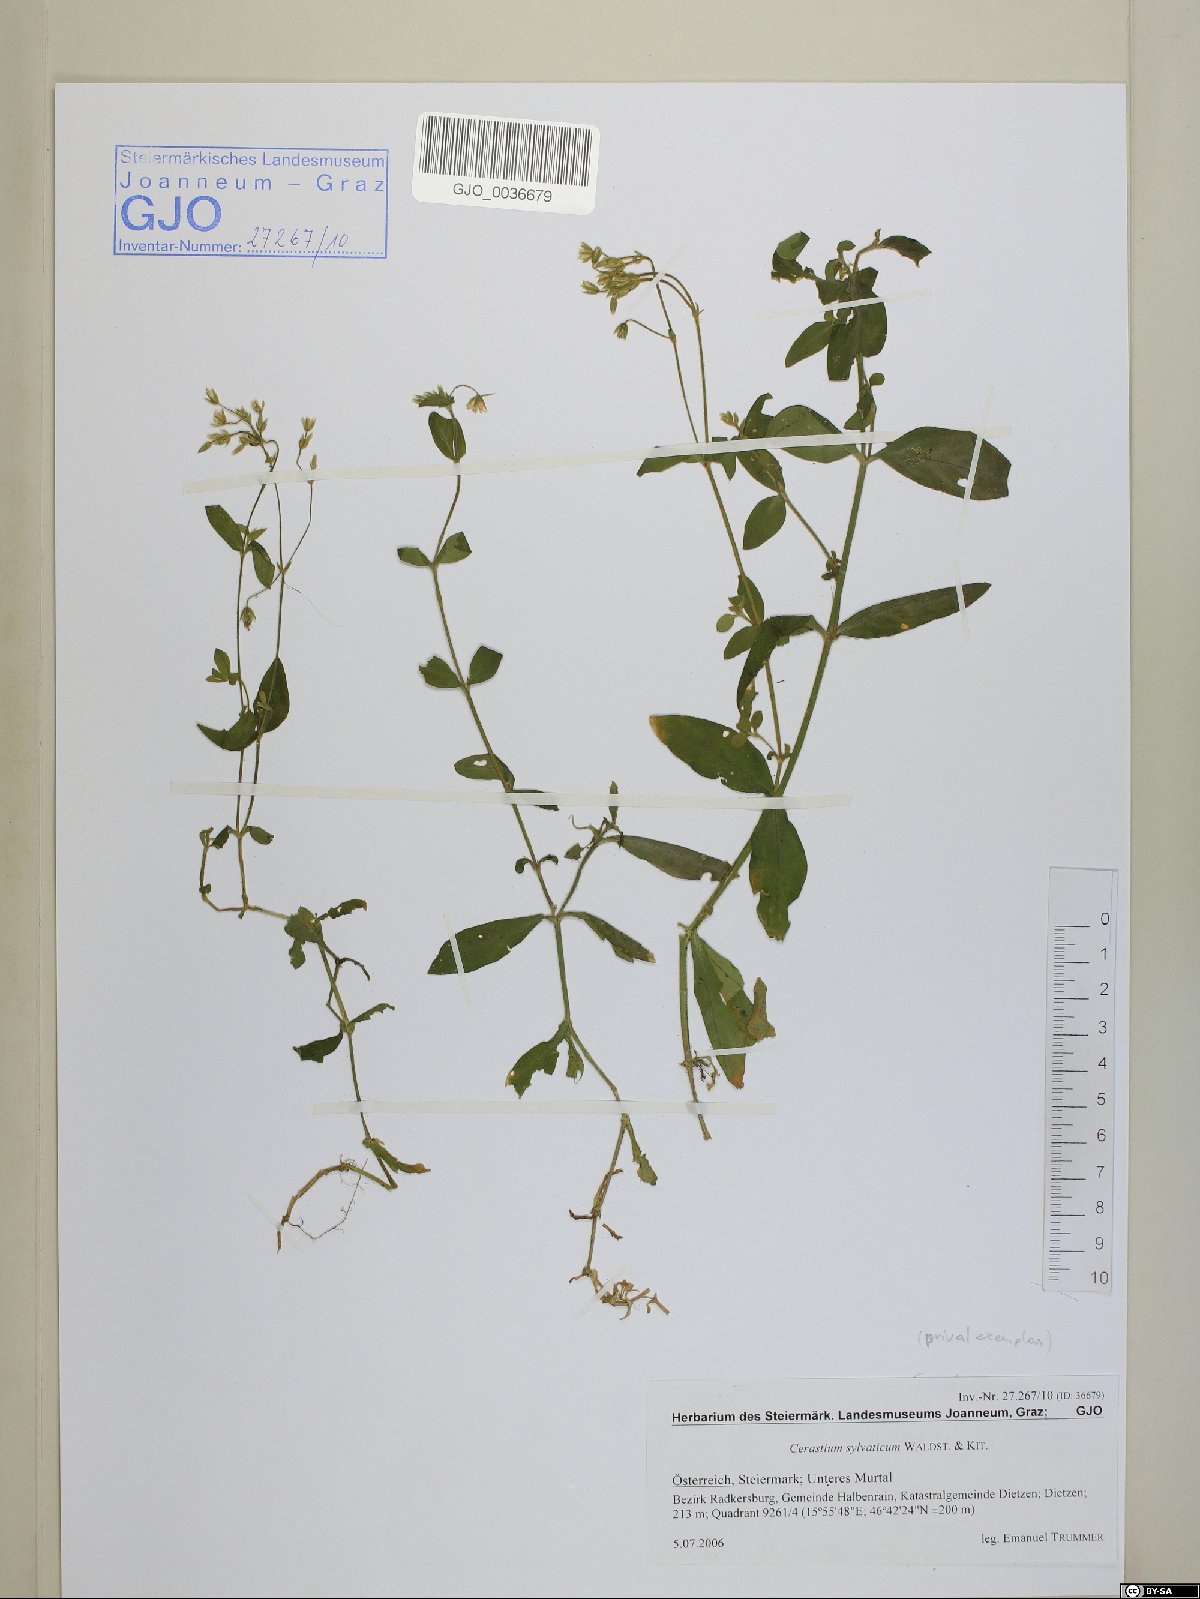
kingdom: Plantae
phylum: Tracheophyta
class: Magnoliopsida
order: Caryophyllales
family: Caryophyllaceae
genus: Cerastium
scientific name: Cerastium sylvaticum
